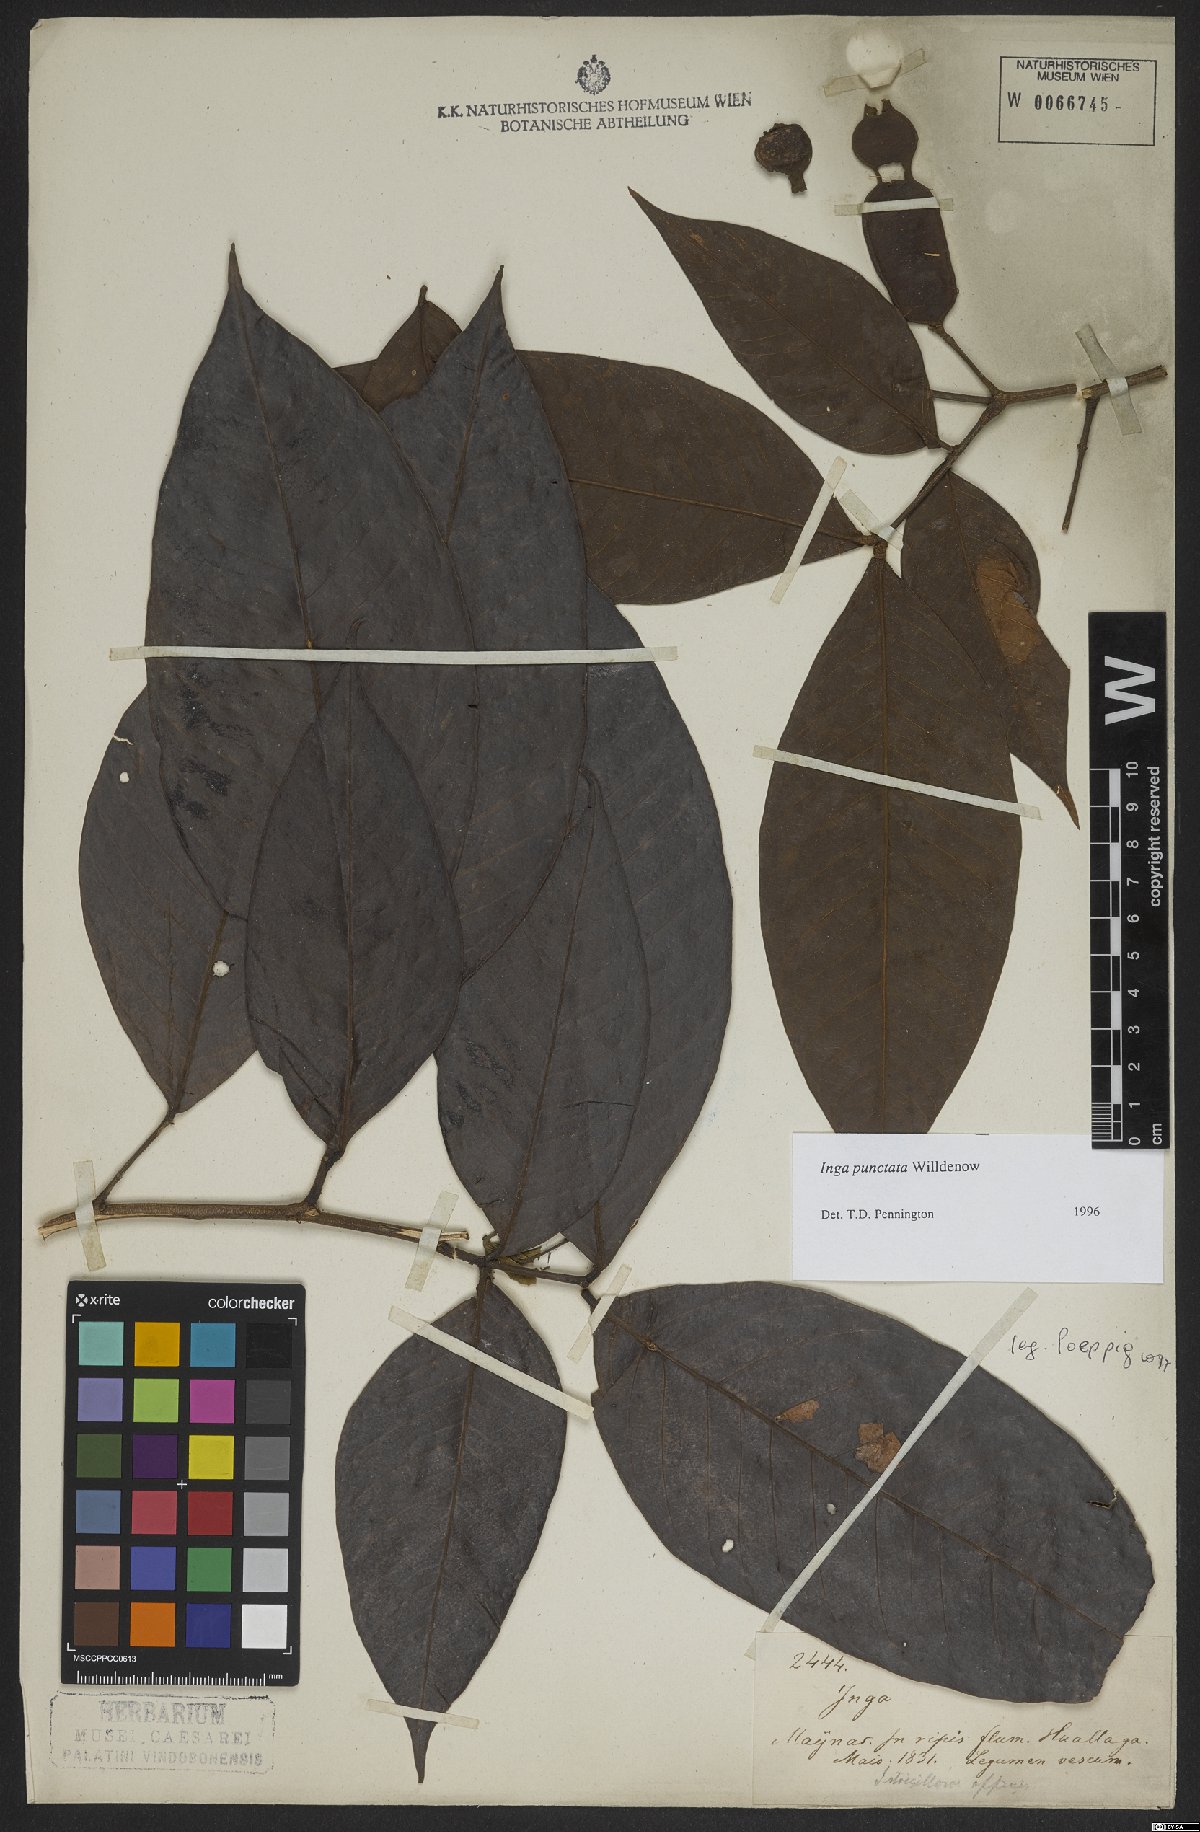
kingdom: Plantae
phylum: Tracheophyta
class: Magnoliopsida
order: Fabales
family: Fabaceae
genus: Inga
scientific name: Inga punctata
